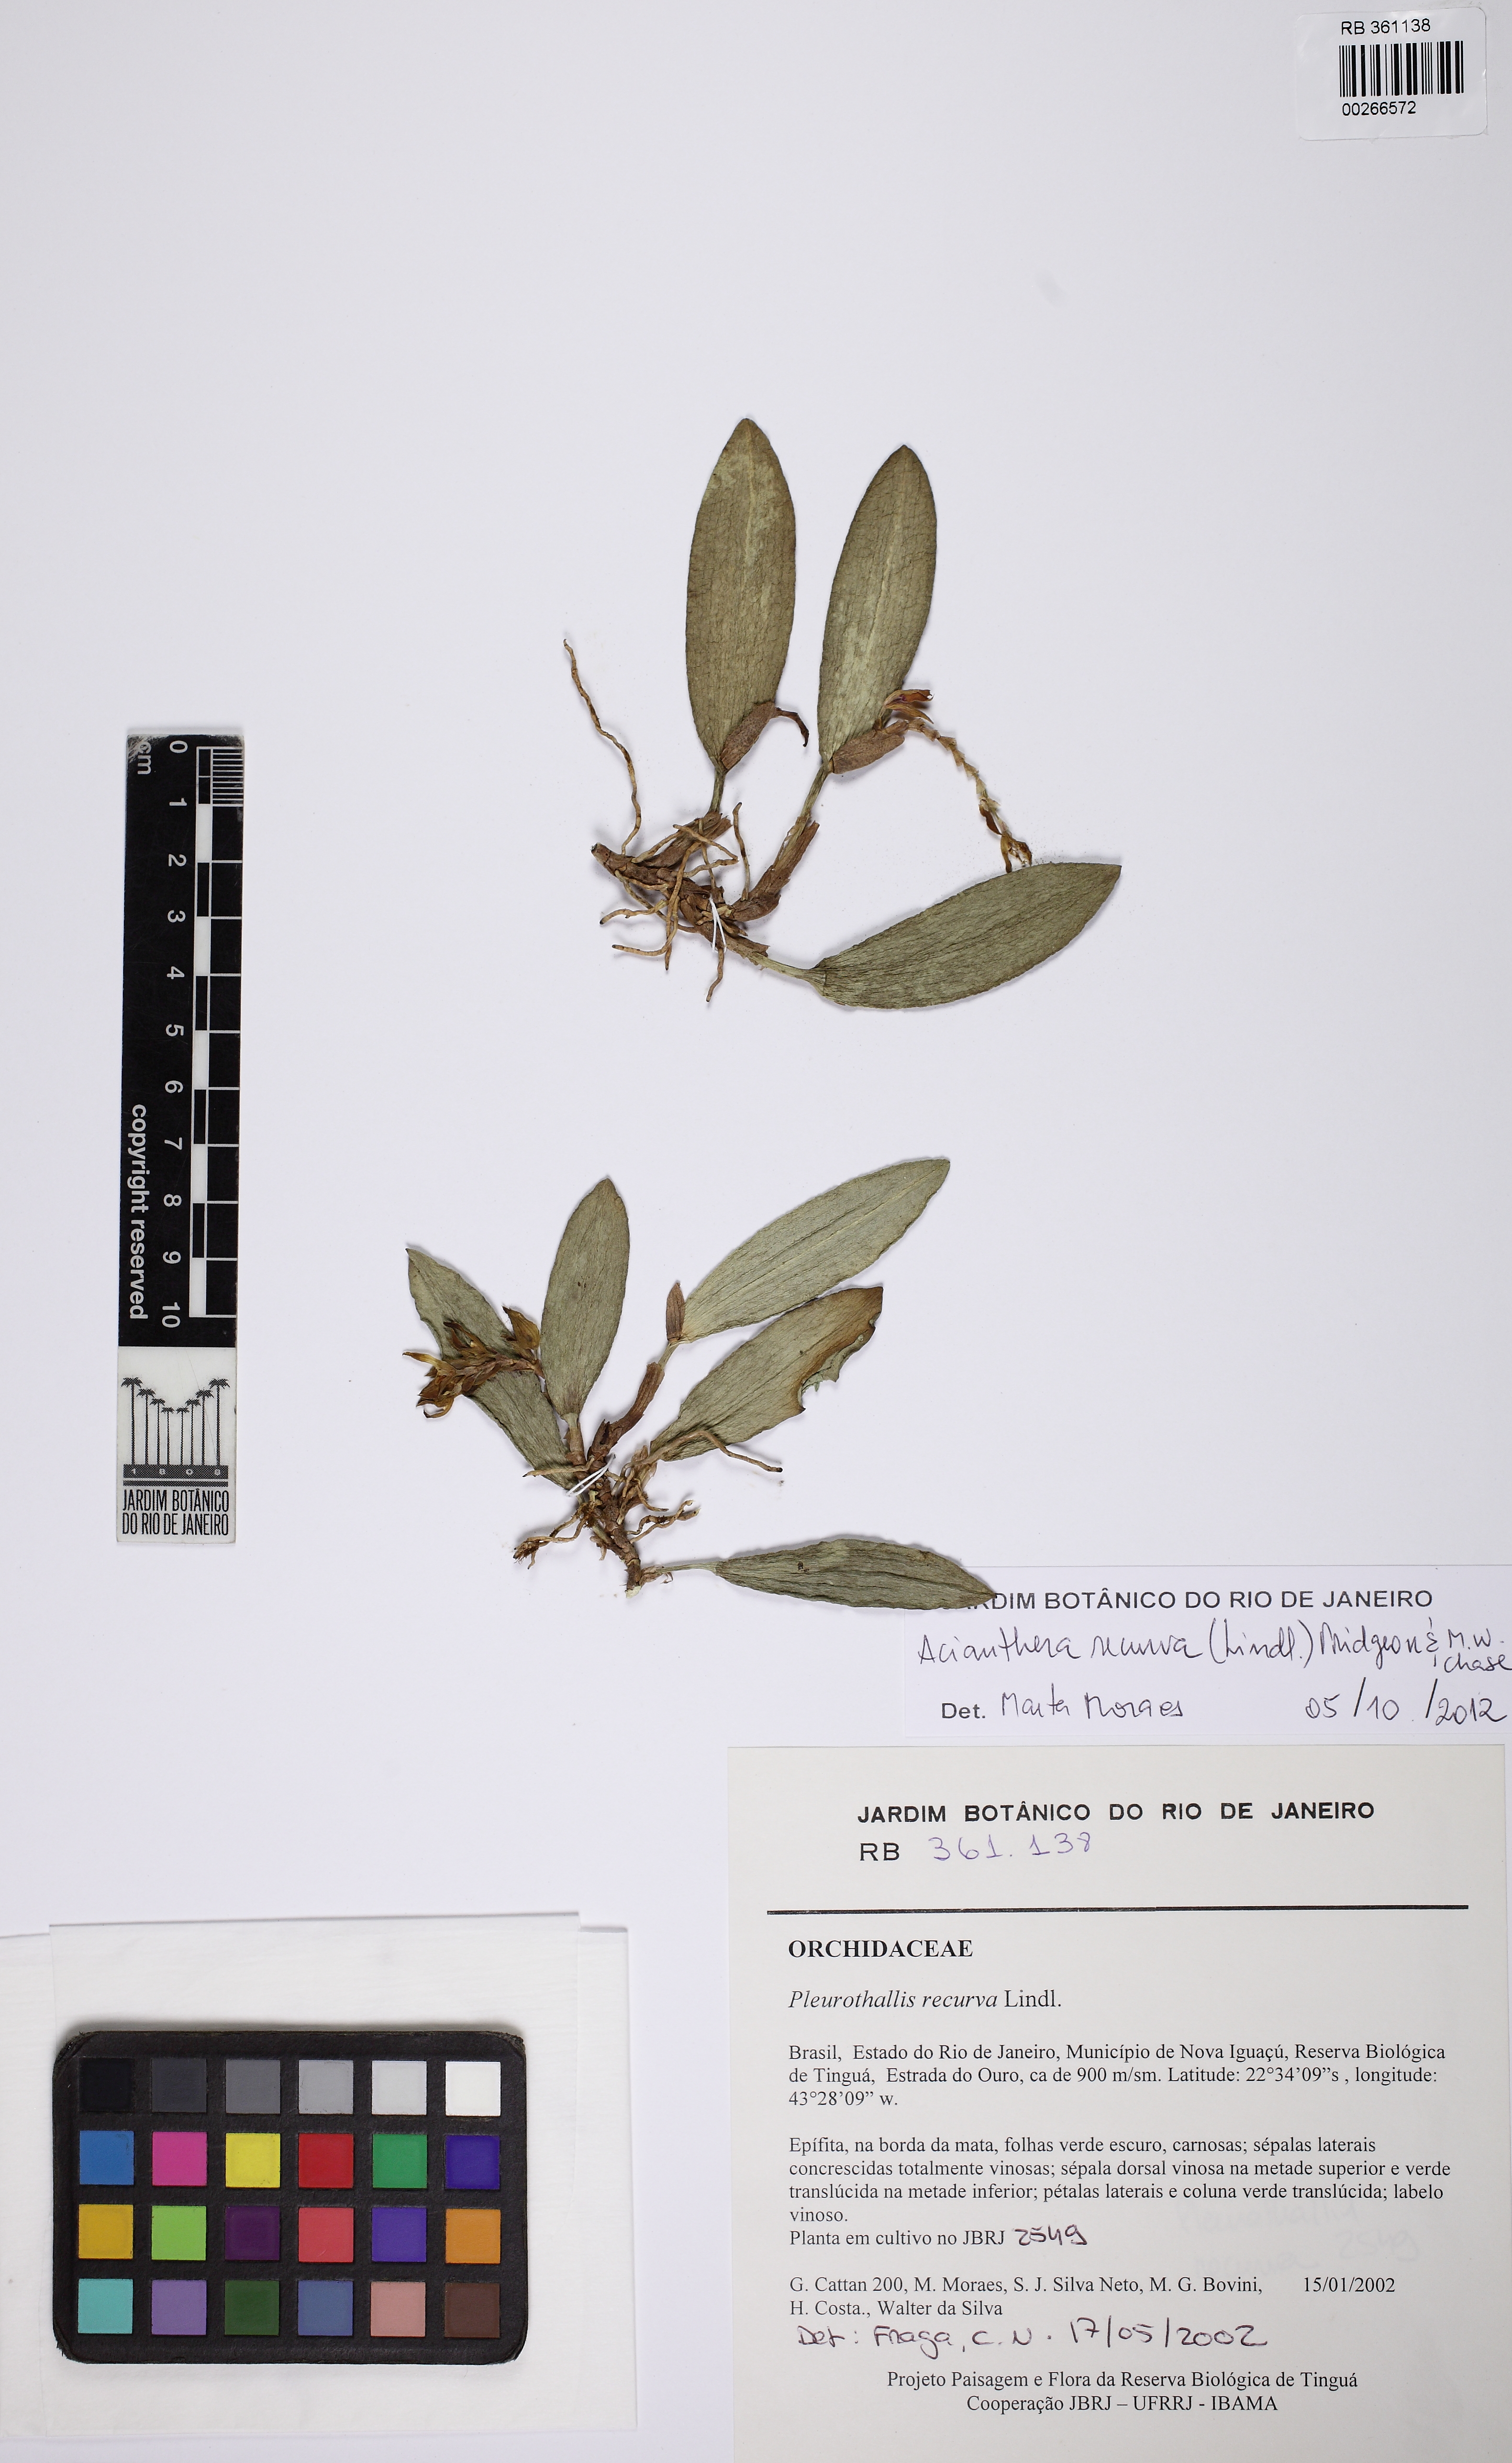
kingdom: Plantae
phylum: Tracheophyta
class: Liliopsida
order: Asparagales
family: Orchidaceae
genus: Acianthera
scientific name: Acianthera recurva
